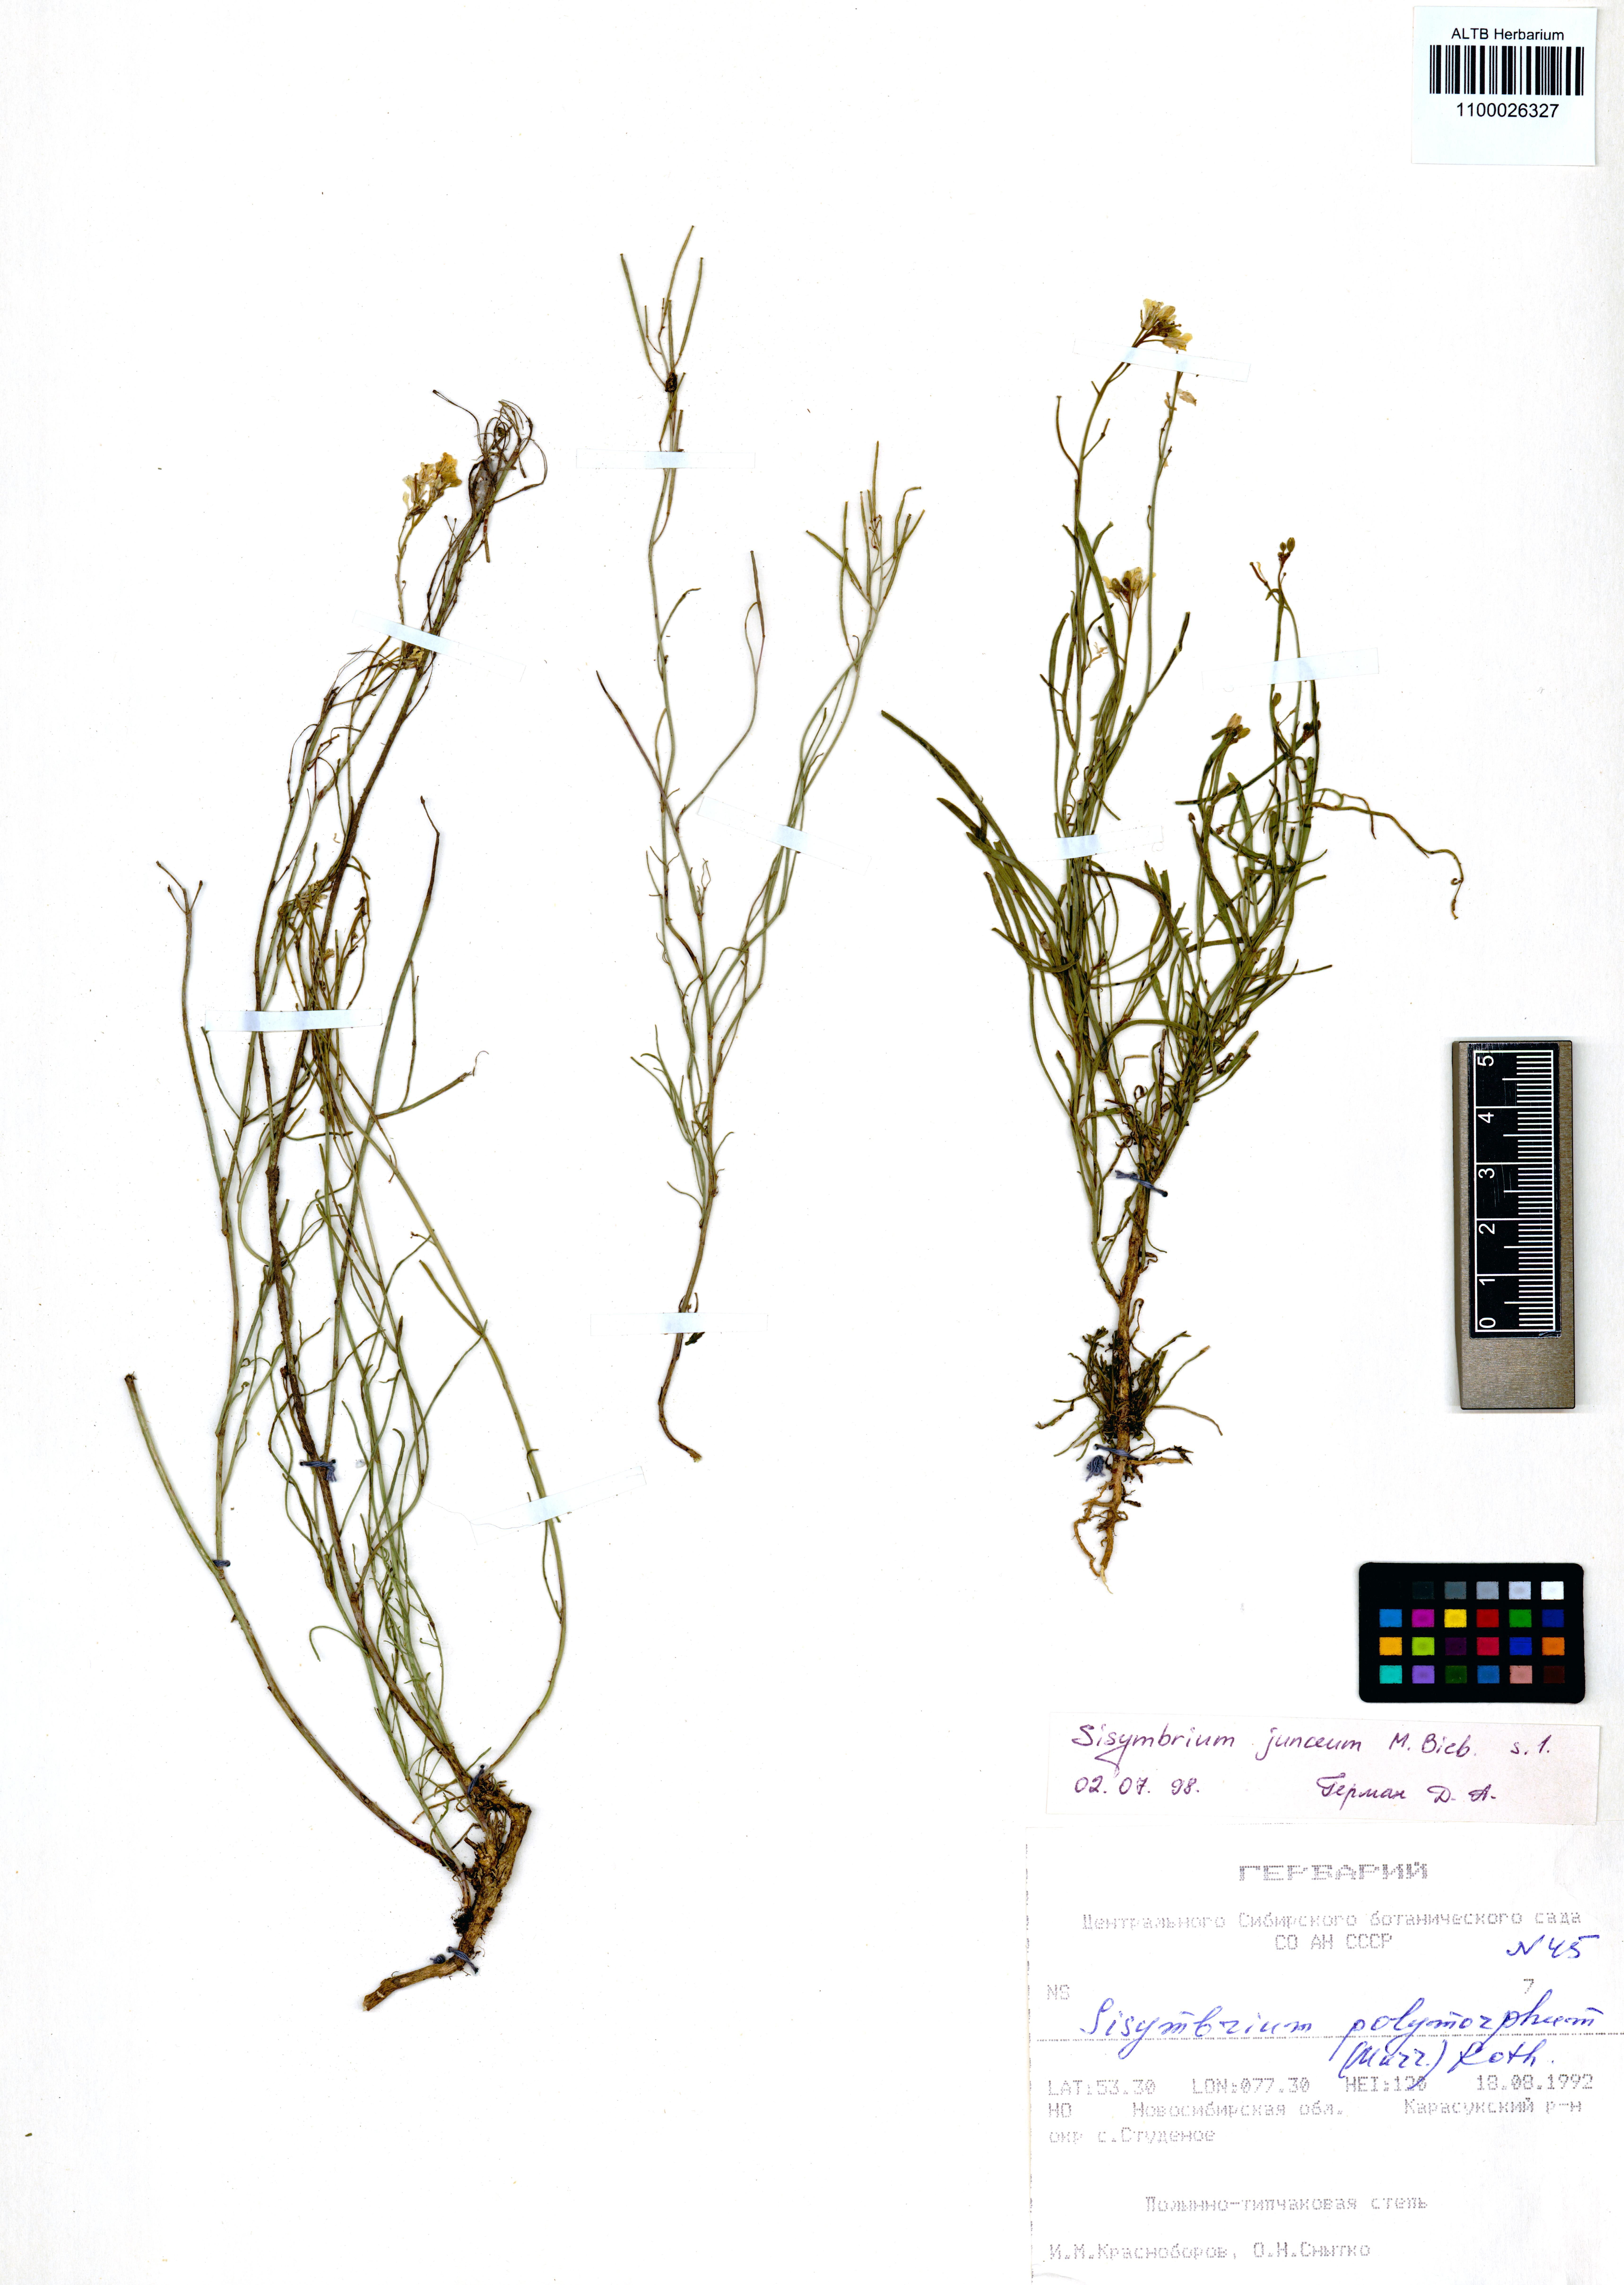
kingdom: Plantae
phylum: Tracheophyta
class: Magnoliopsida
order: Brassicales
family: Brassicaceae
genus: Sisymbrium
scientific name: Sisymbrium polymorphum
